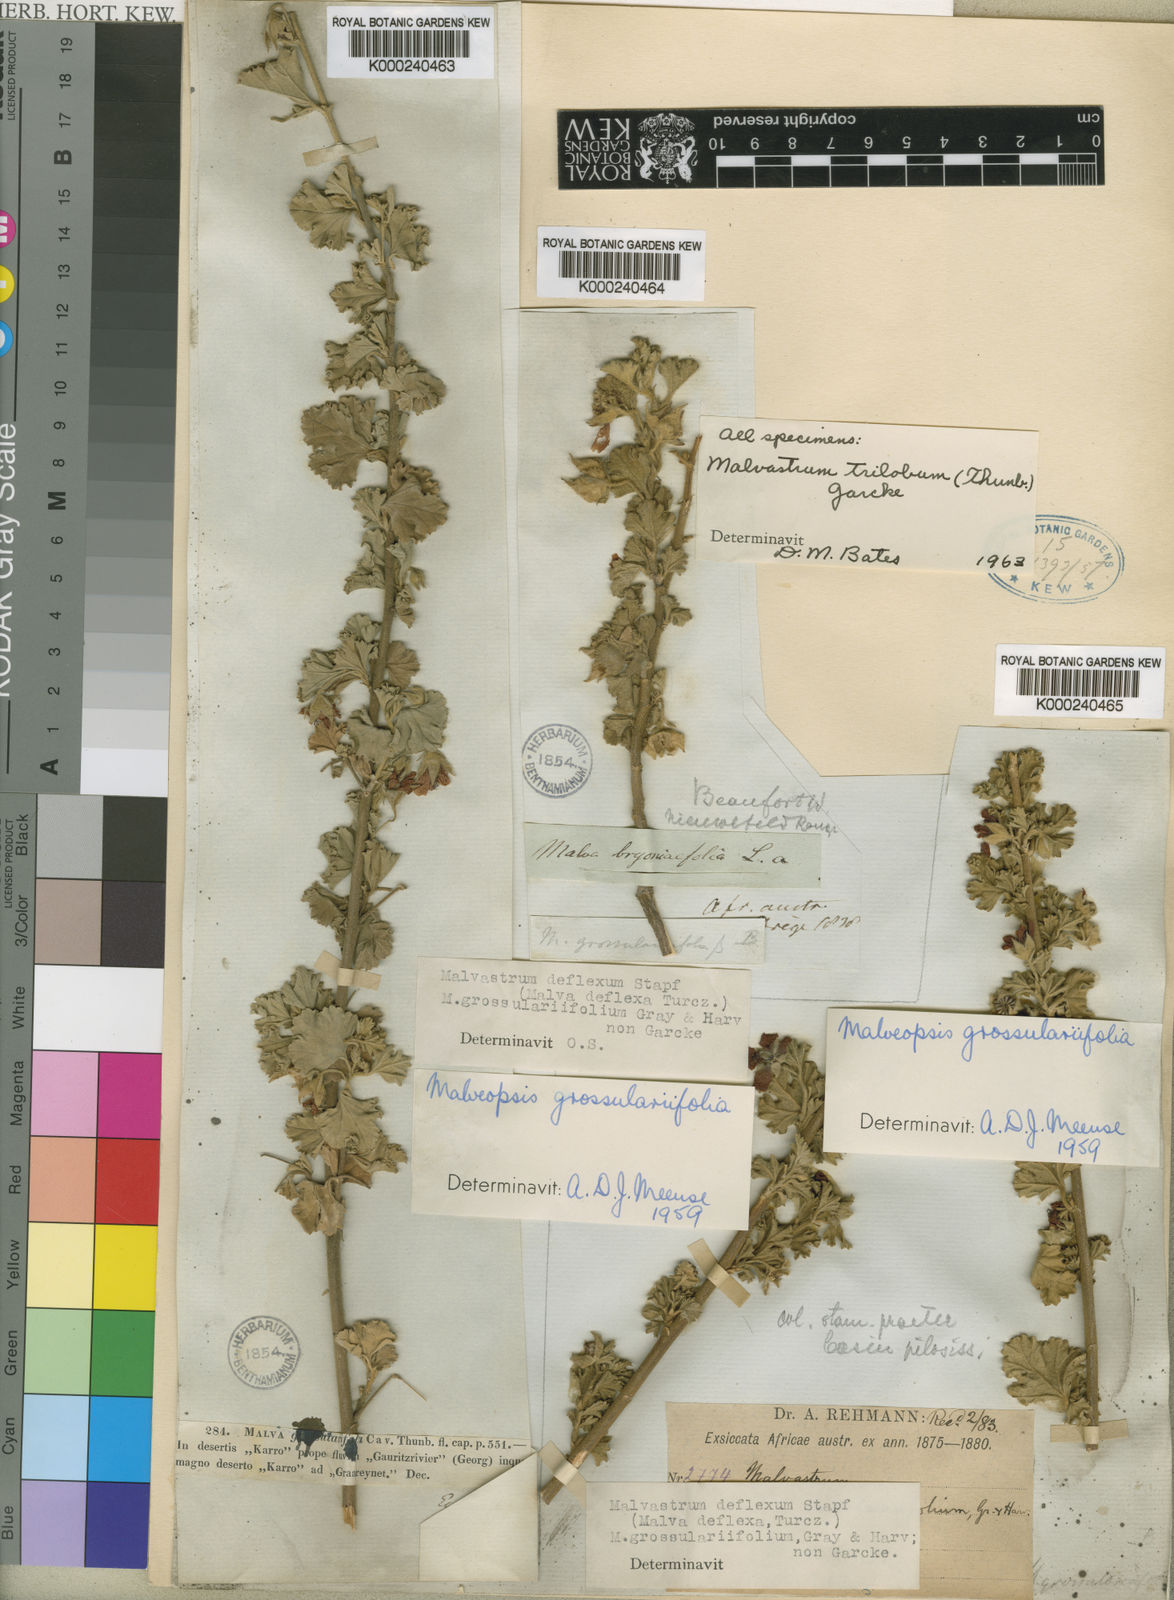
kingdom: Plantae
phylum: Tracheophyta
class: Magnoliopsida
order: Malvales
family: Malvaceae
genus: Anisodontea
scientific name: Anisodontea triloba
